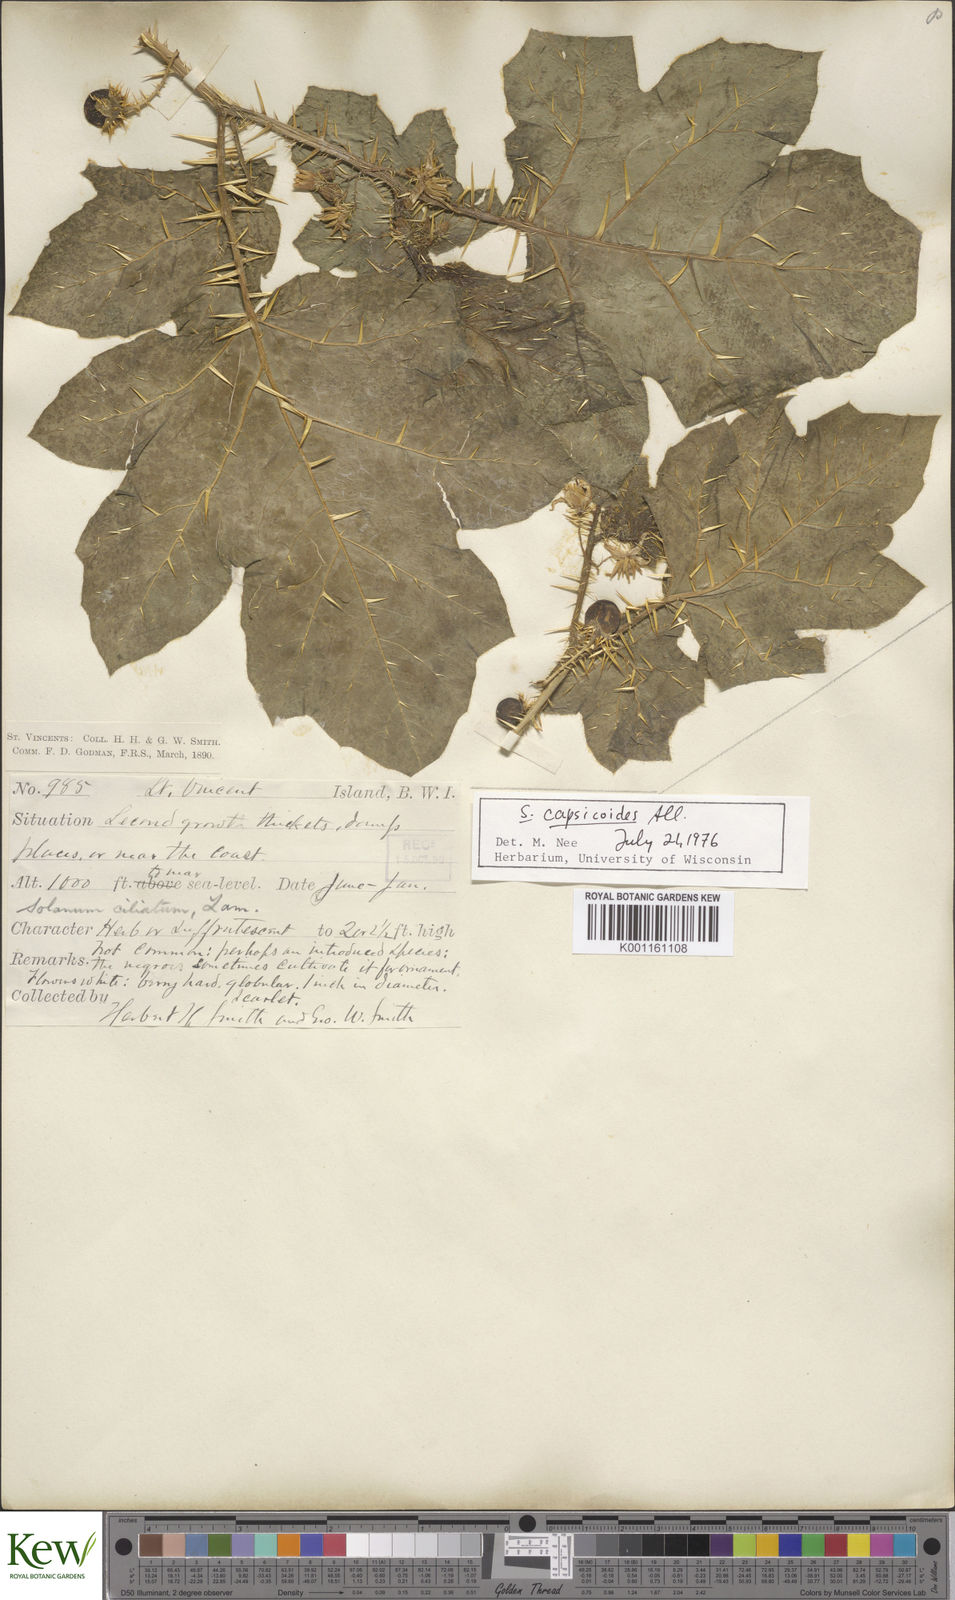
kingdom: Plantae
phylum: Tracheophyta
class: Magnoliopsida
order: Solanales
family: Solanaceae
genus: Solanum
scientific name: Solanum aculeatissimum
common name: Dutch eggplant
